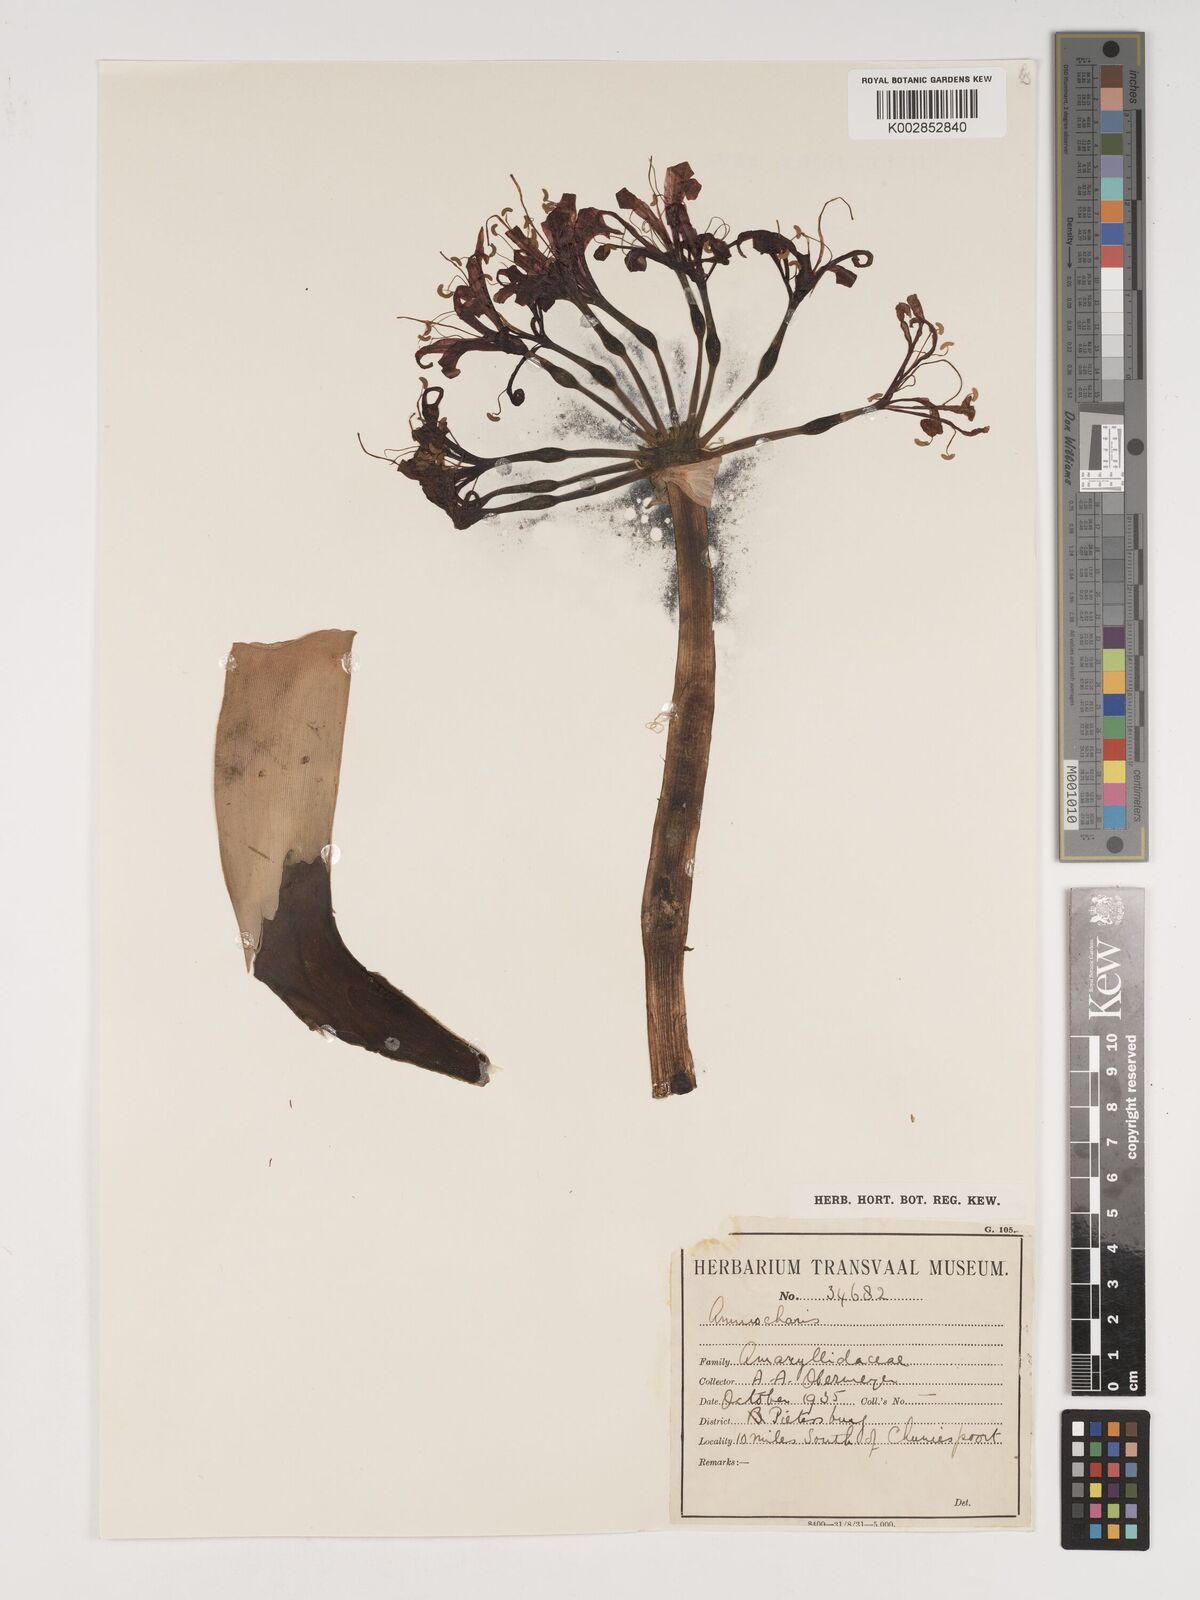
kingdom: Plantae
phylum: Tracheophyta
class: Liliopsida
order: Asparagales
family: Amaryllidaceae
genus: Nerine
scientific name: Nerine
